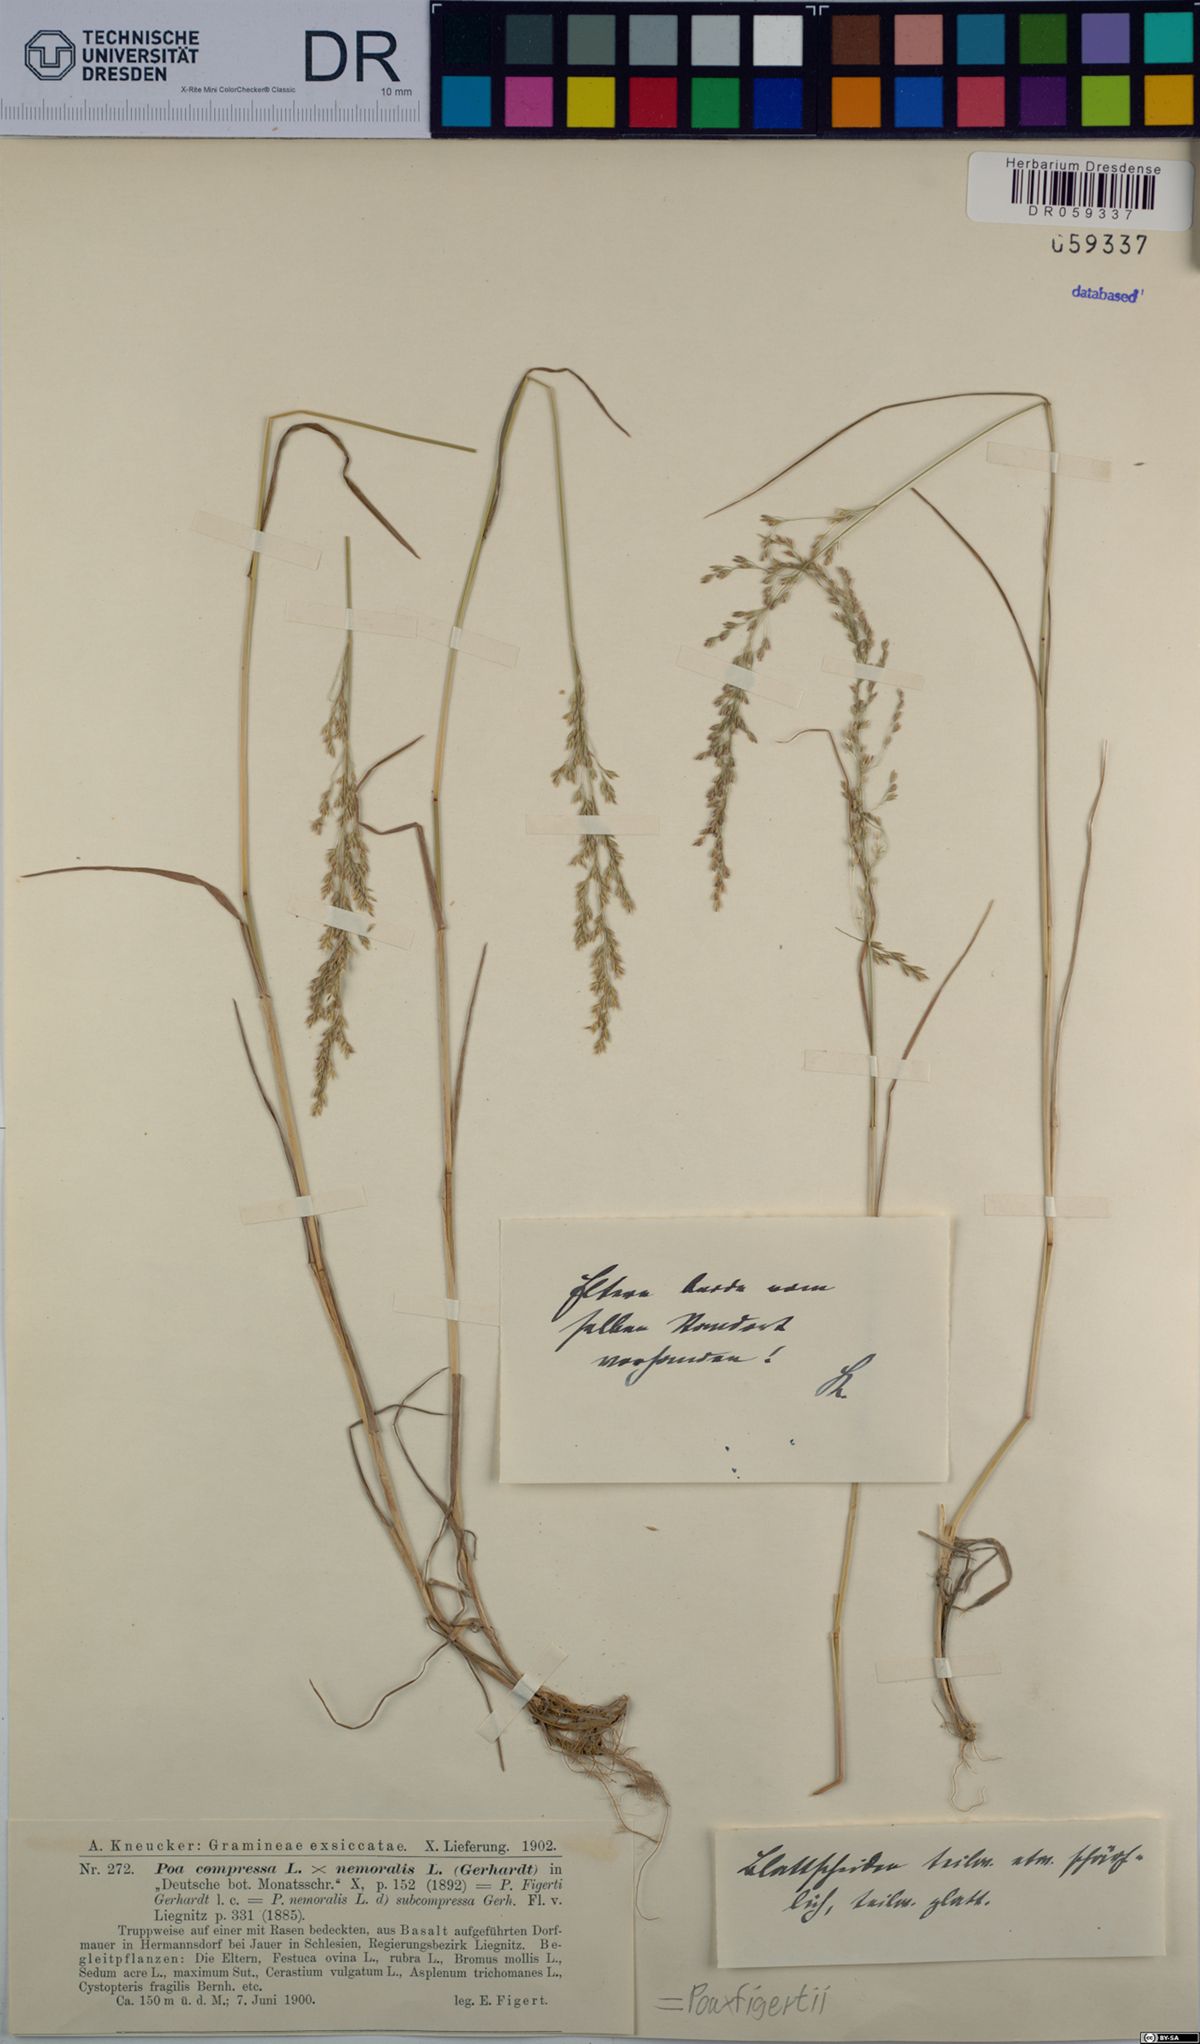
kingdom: Plantae
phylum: Tracheophyta
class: Liliopsida
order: Poales
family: Poaceae
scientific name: Poaceae
